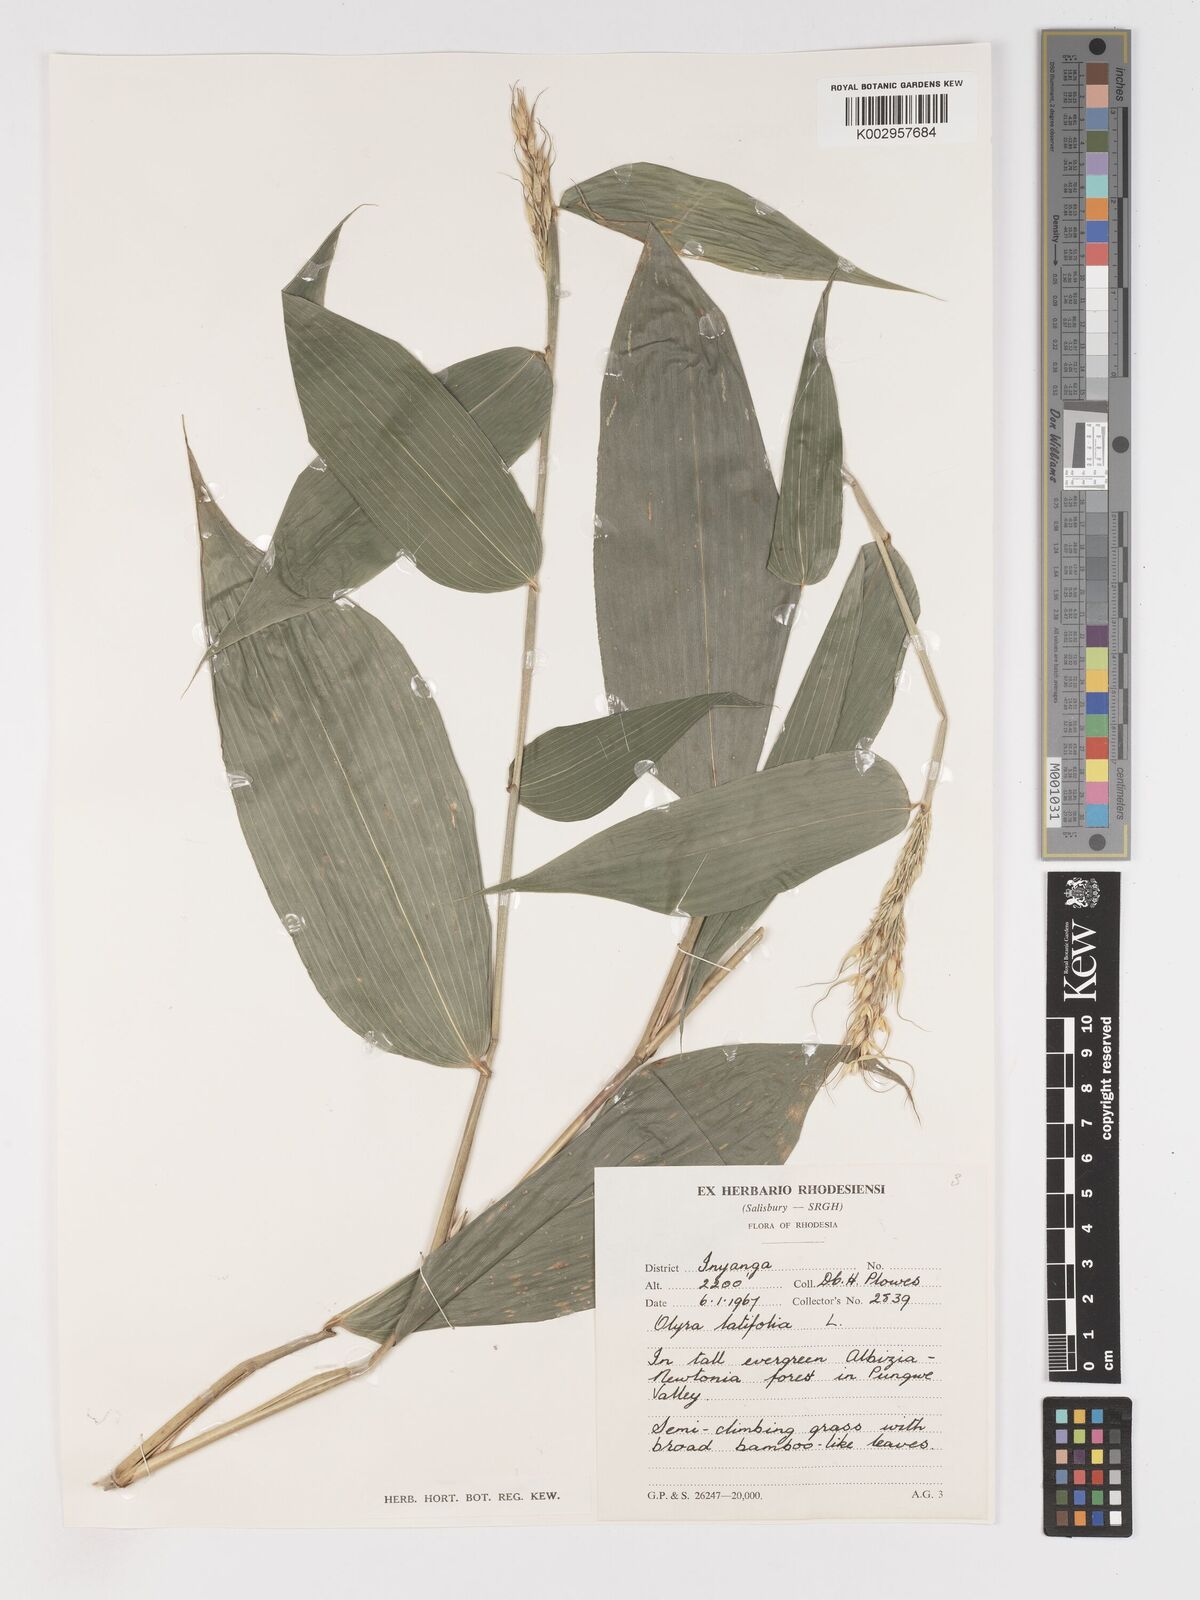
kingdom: Plantae
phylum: Tracheophyta
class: Liliopsida
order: Poales
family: Poaceae
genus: Olyra
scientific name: Olyra latifolia
